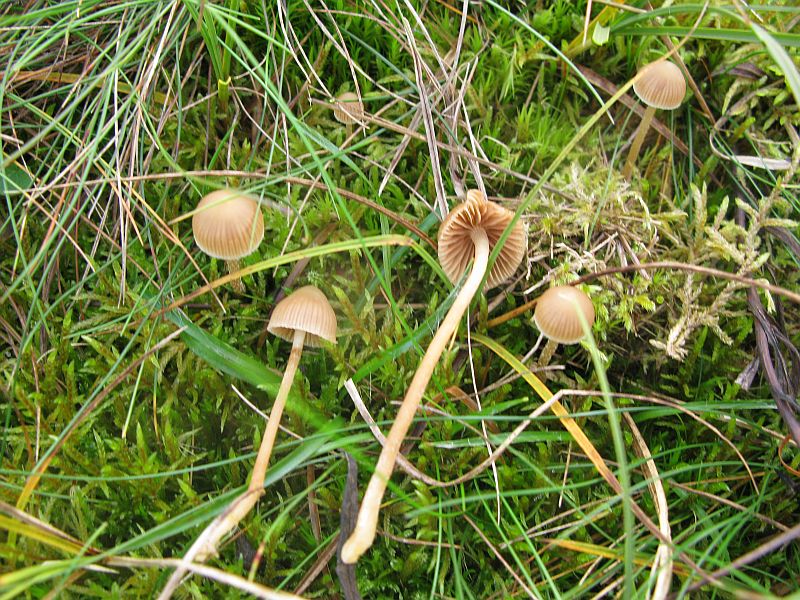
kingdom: Fungi
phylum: Basidiomycota
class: Agaricomycetes
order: Agaricales
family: Hymenogastraceae
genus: Galerina
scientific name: Galerina mniophila
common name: olivengul hjelmhat
